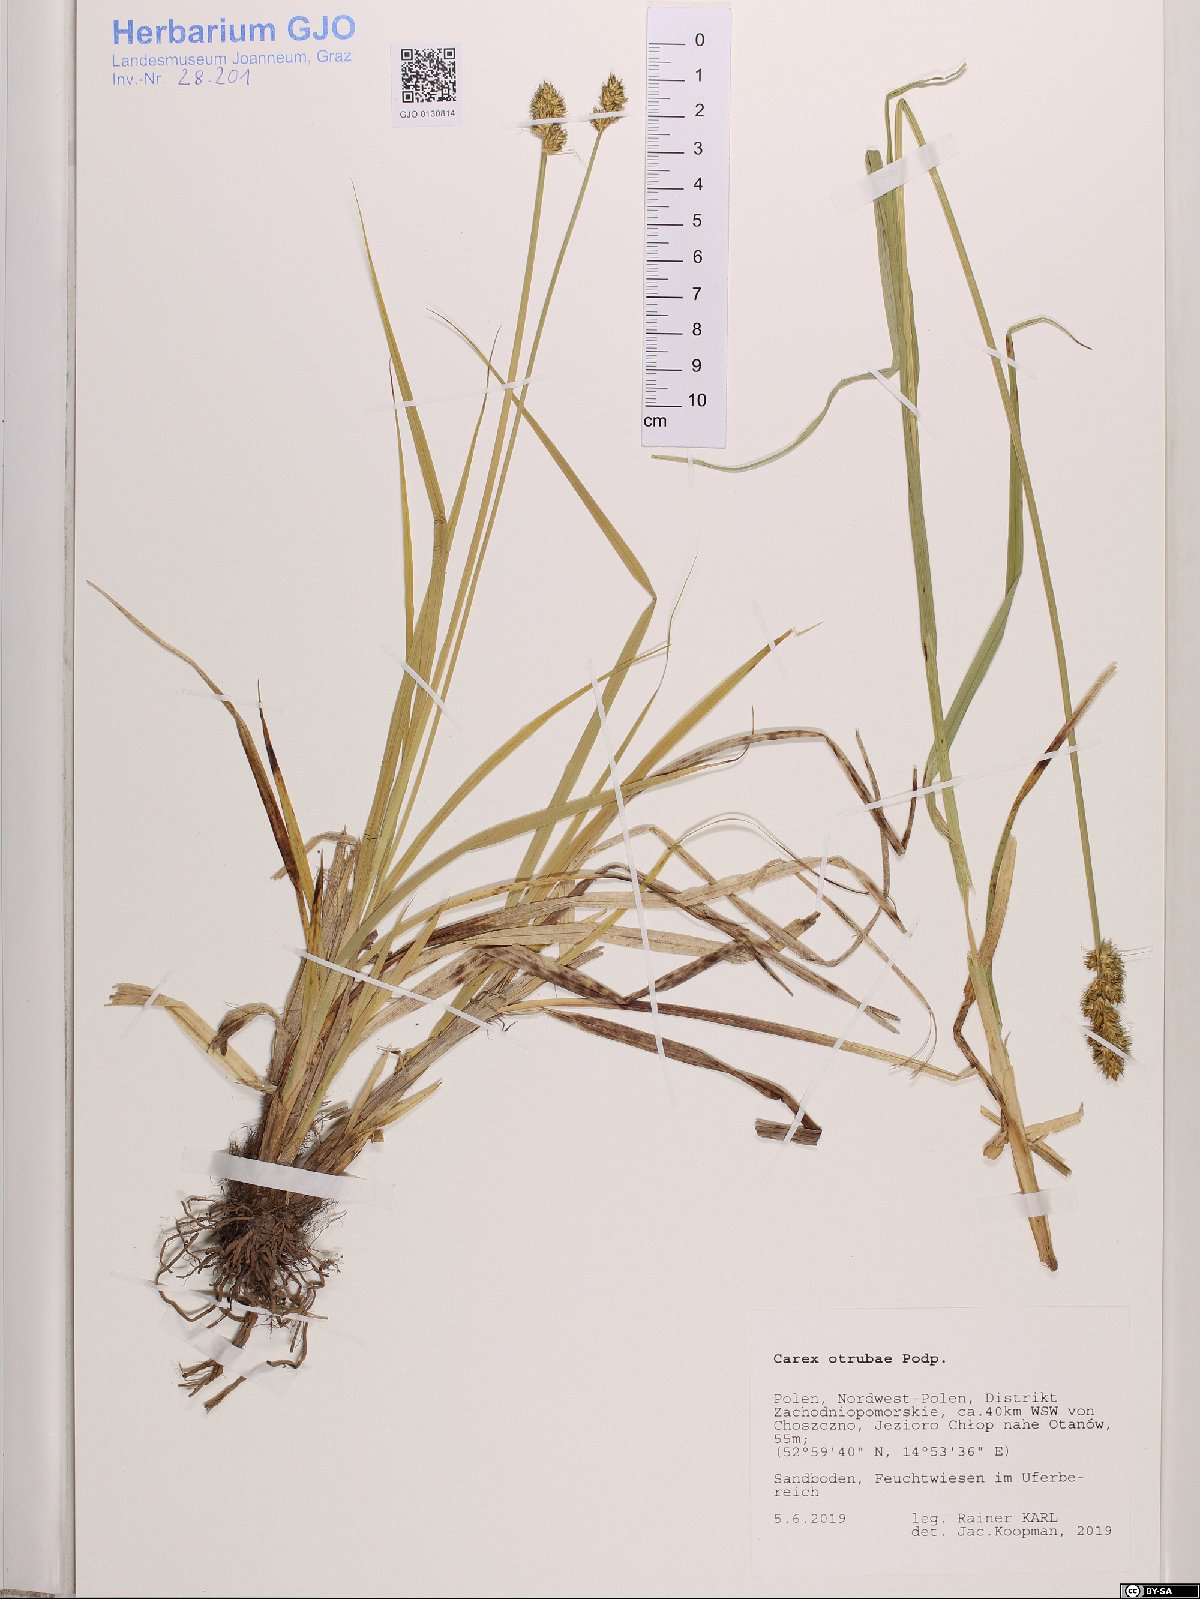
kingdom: Plantae
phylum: Tracheophyta
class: Liliopsida
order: Poales
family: Cyperaceae
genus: Carex
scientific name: Carex otrubae
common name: False fox-sedge
